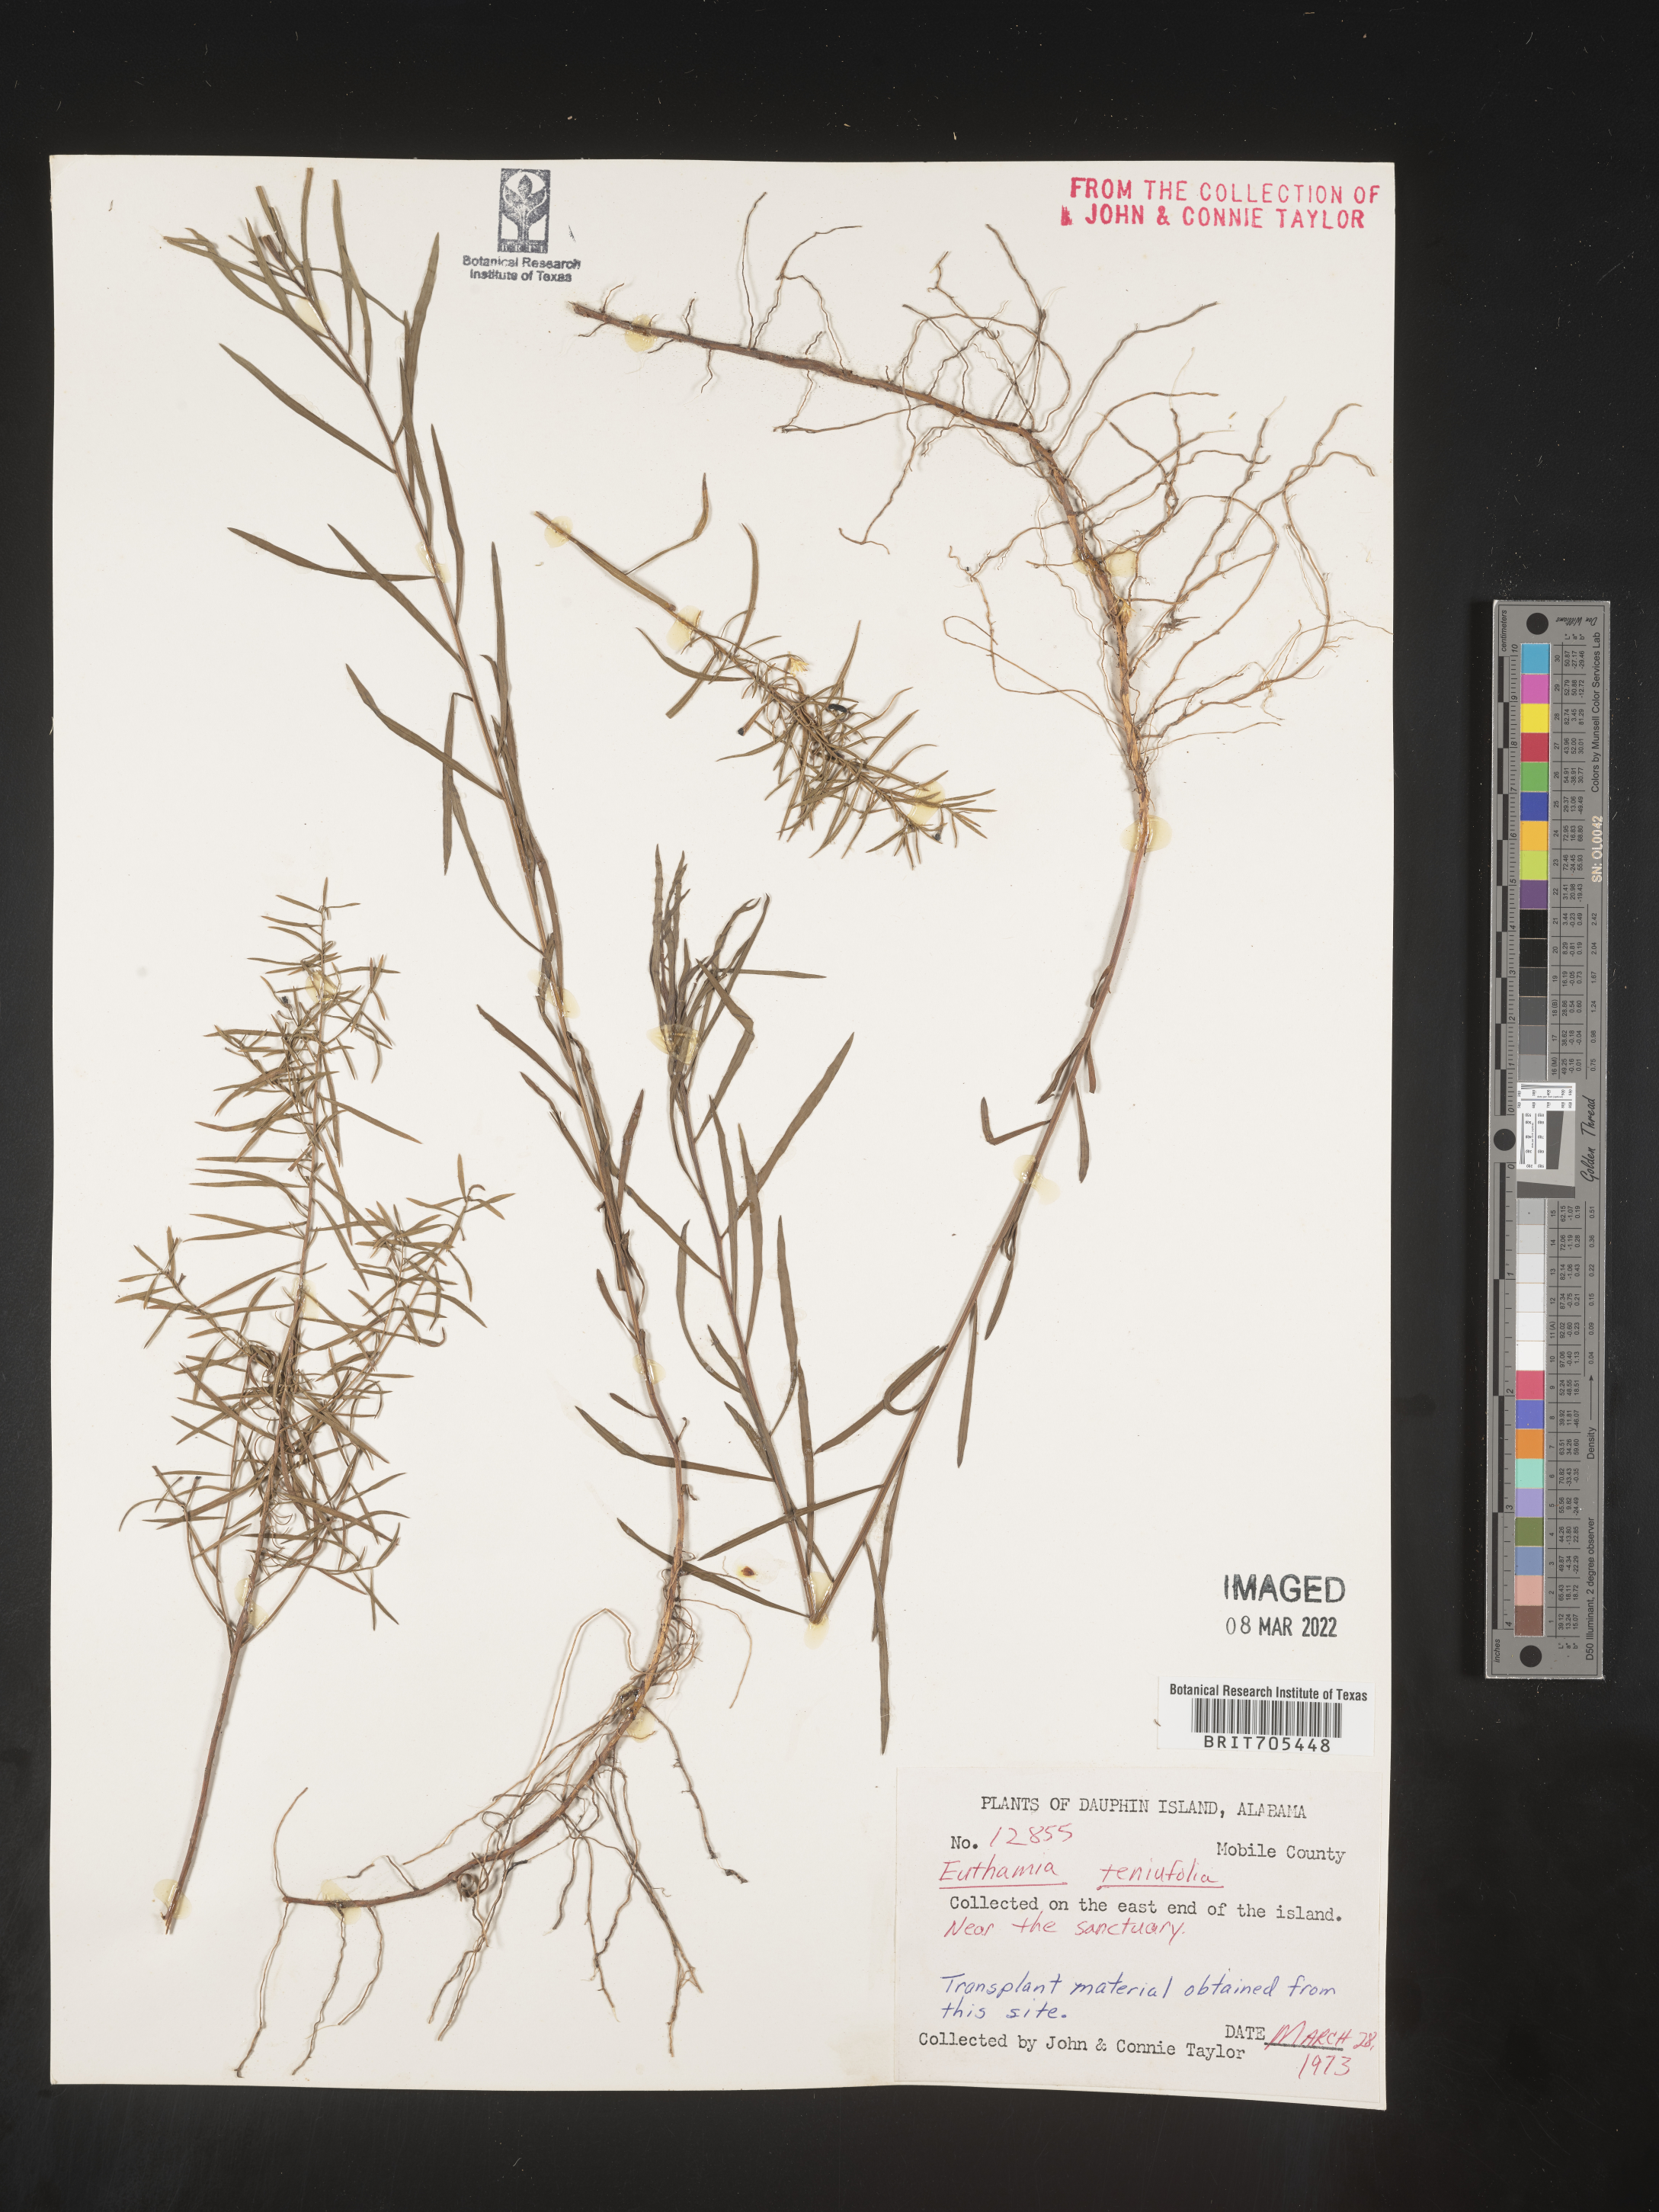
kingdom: Plantae
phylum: Tracheophyta
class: Magnoliopsida
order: Asterales
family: Asteraceae
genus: Euthamia
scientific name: Euthamia scabra
